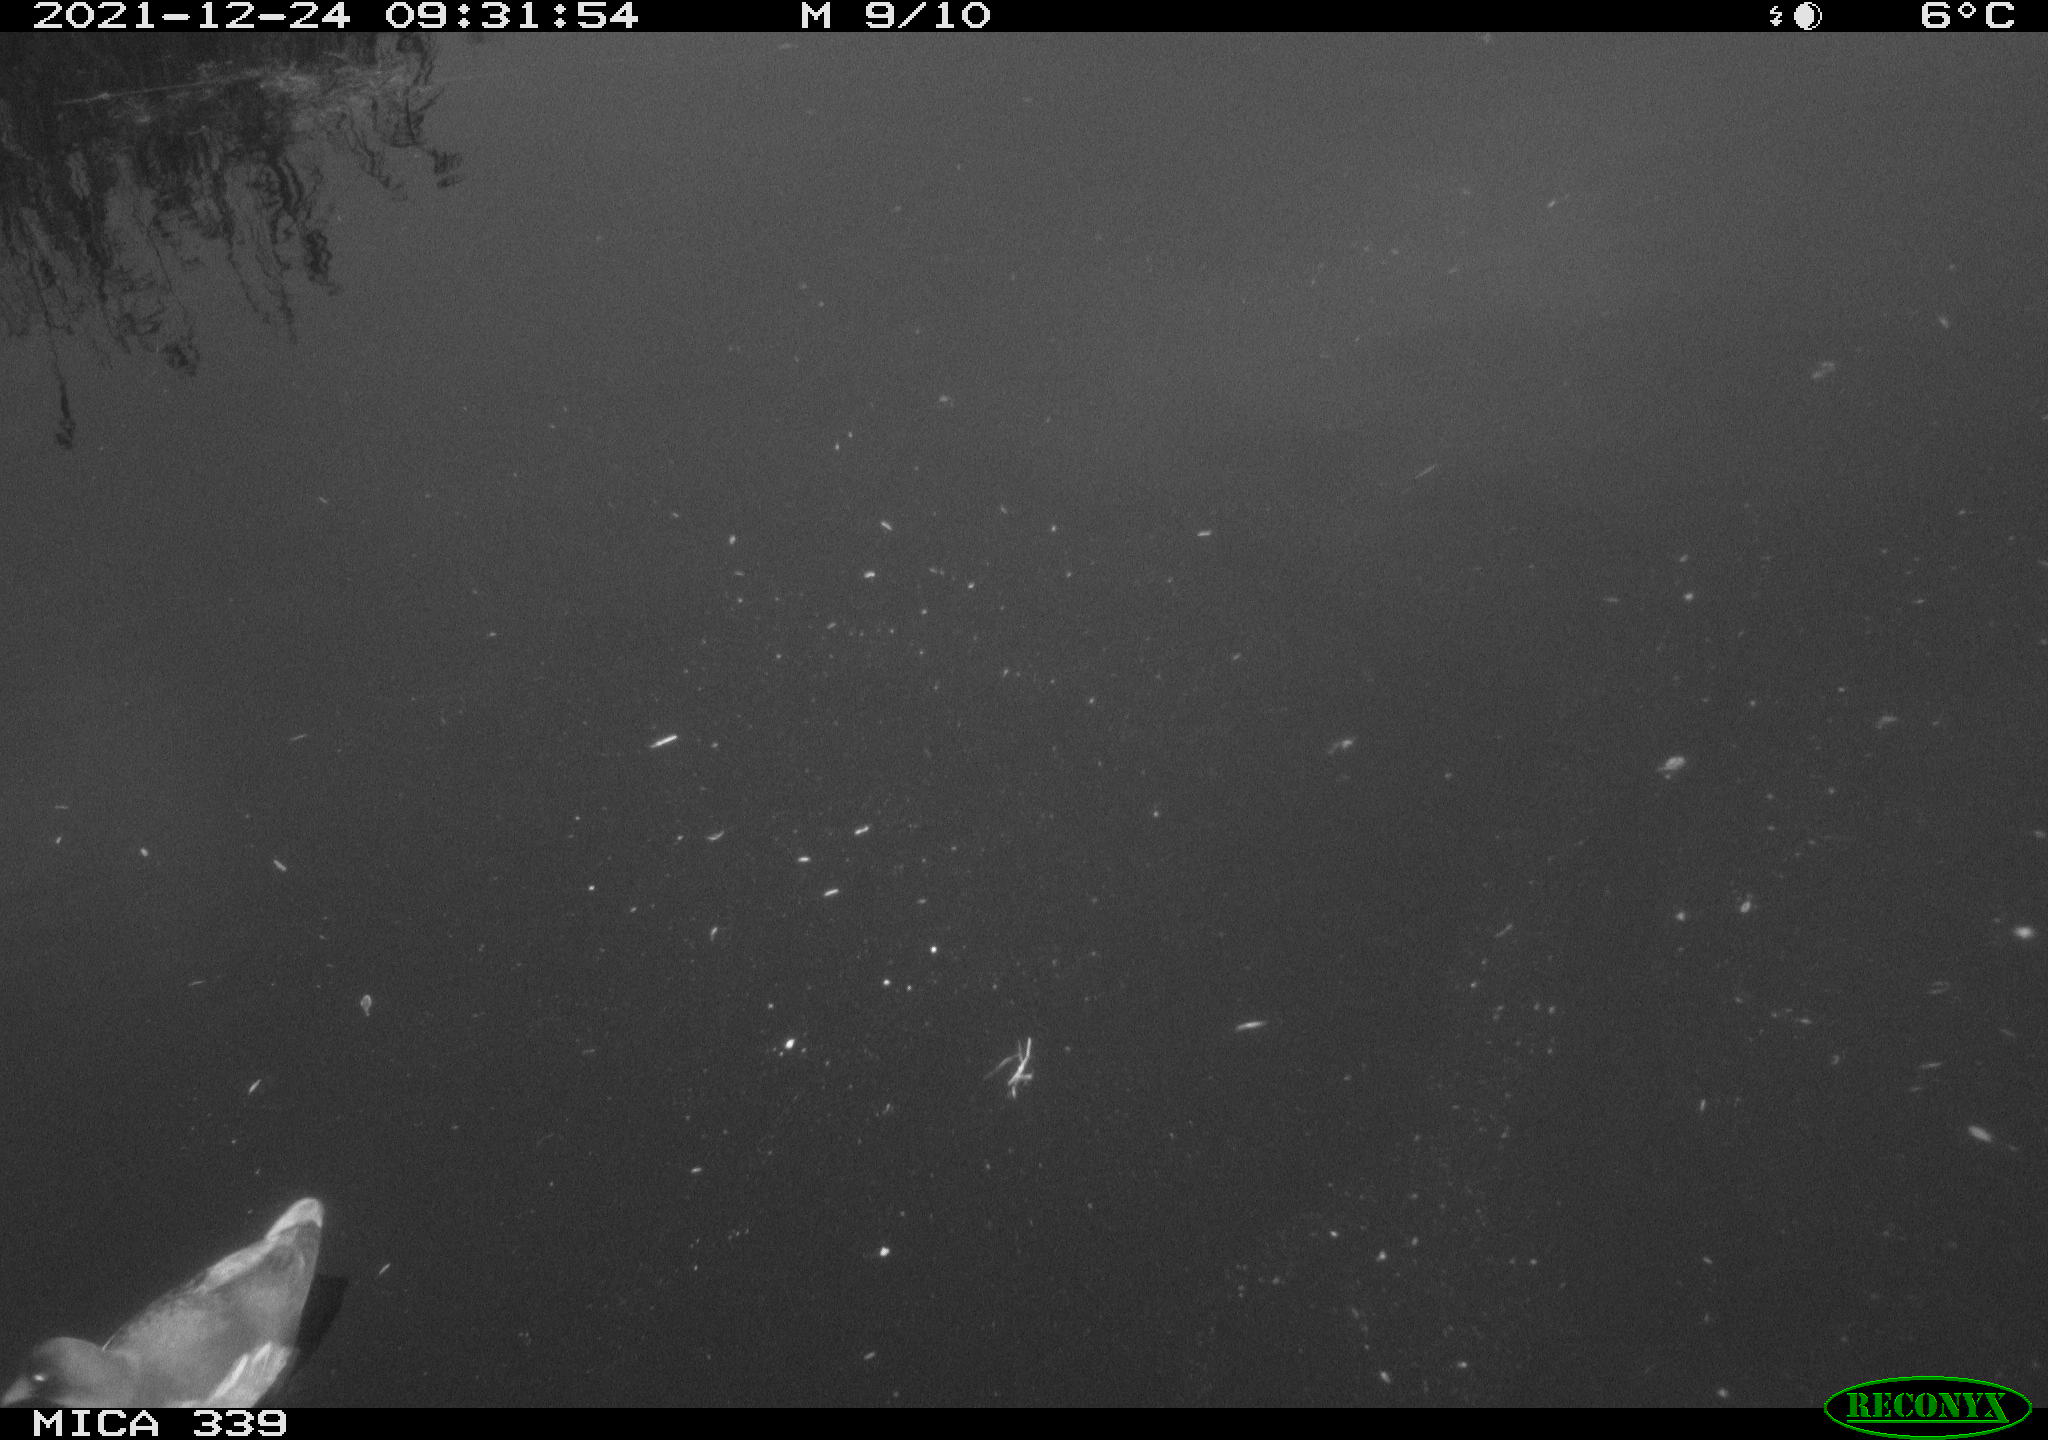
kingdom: Animalia
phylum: Chordata
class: Aves
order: Gruiformes
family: Rallidae
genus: Gallinula
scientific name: Gallinula chloropus
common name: Common moorhen
